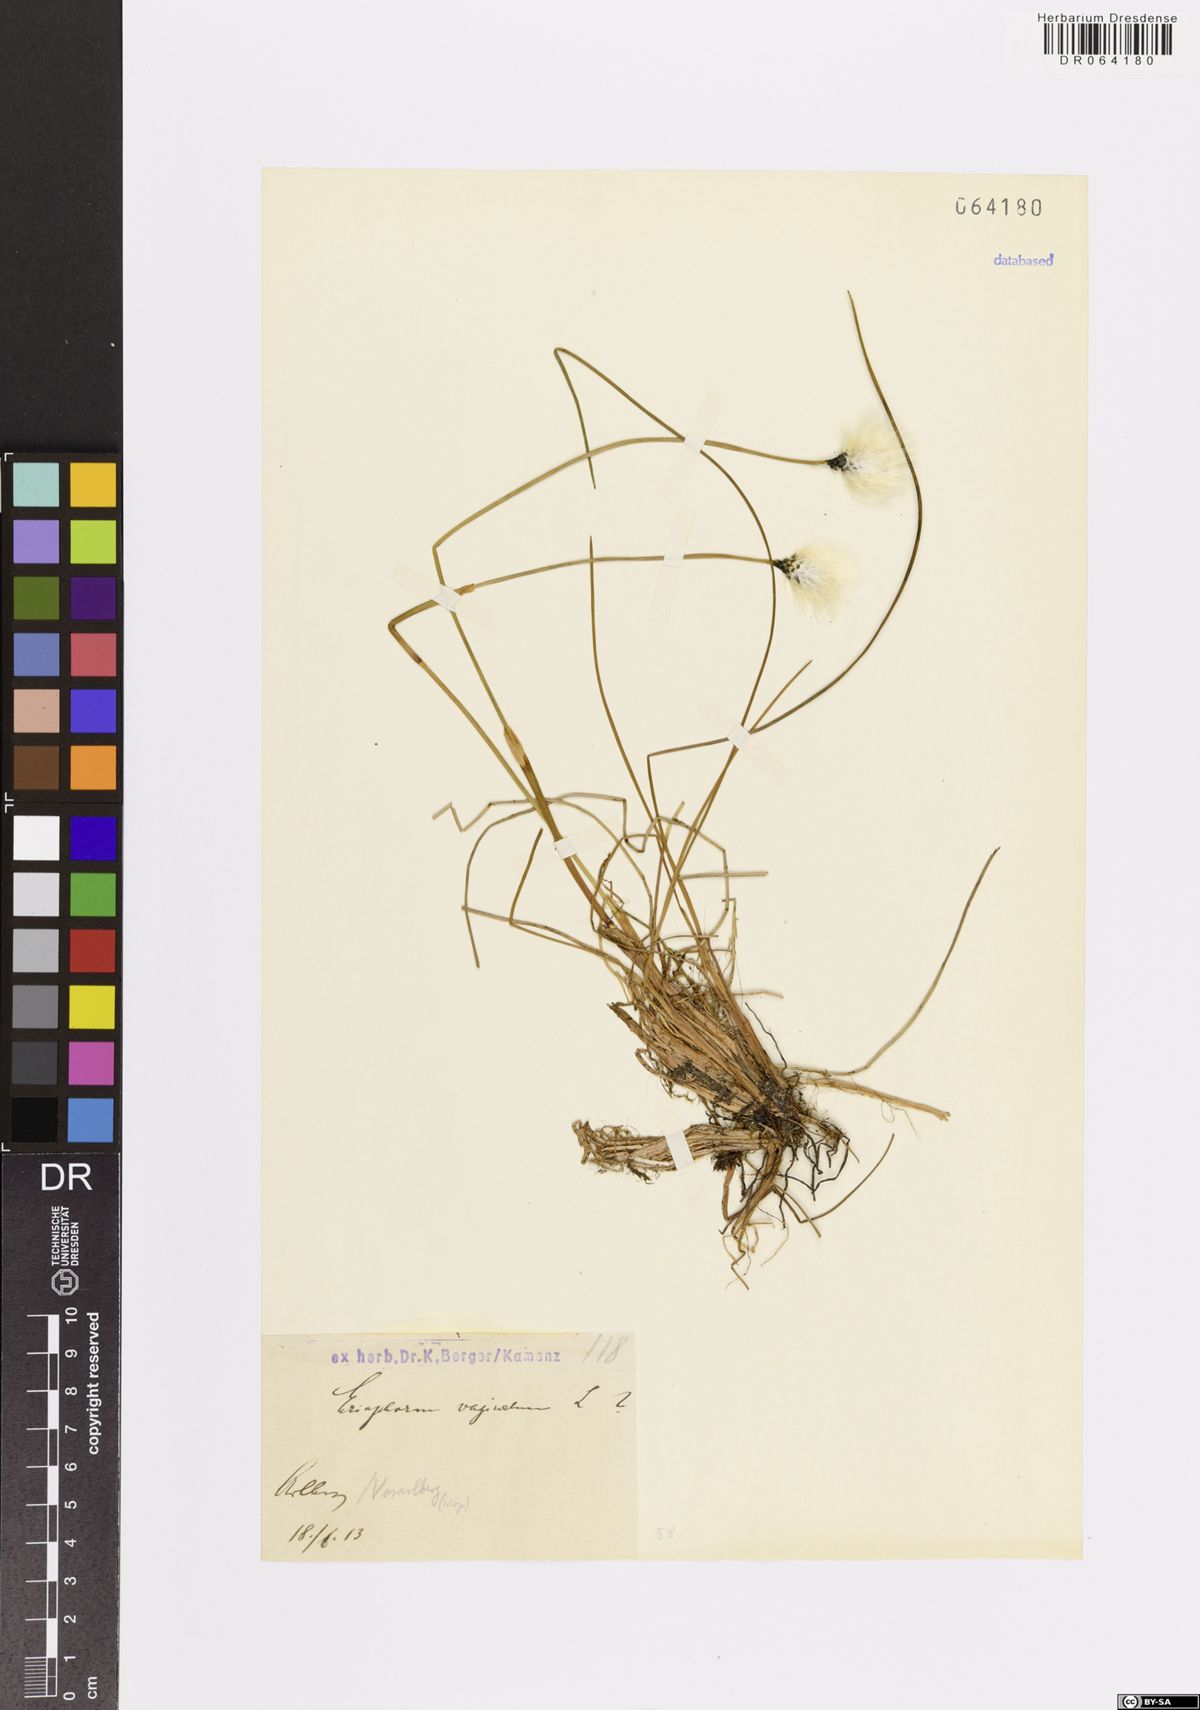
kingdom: Plantae
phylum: Tracheophyta
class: Liliopsida
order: Poales
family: Cyperaceae
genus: Eriophorum
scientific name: Eriophorum vaginatum
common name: Hare's-tail cottongrass
